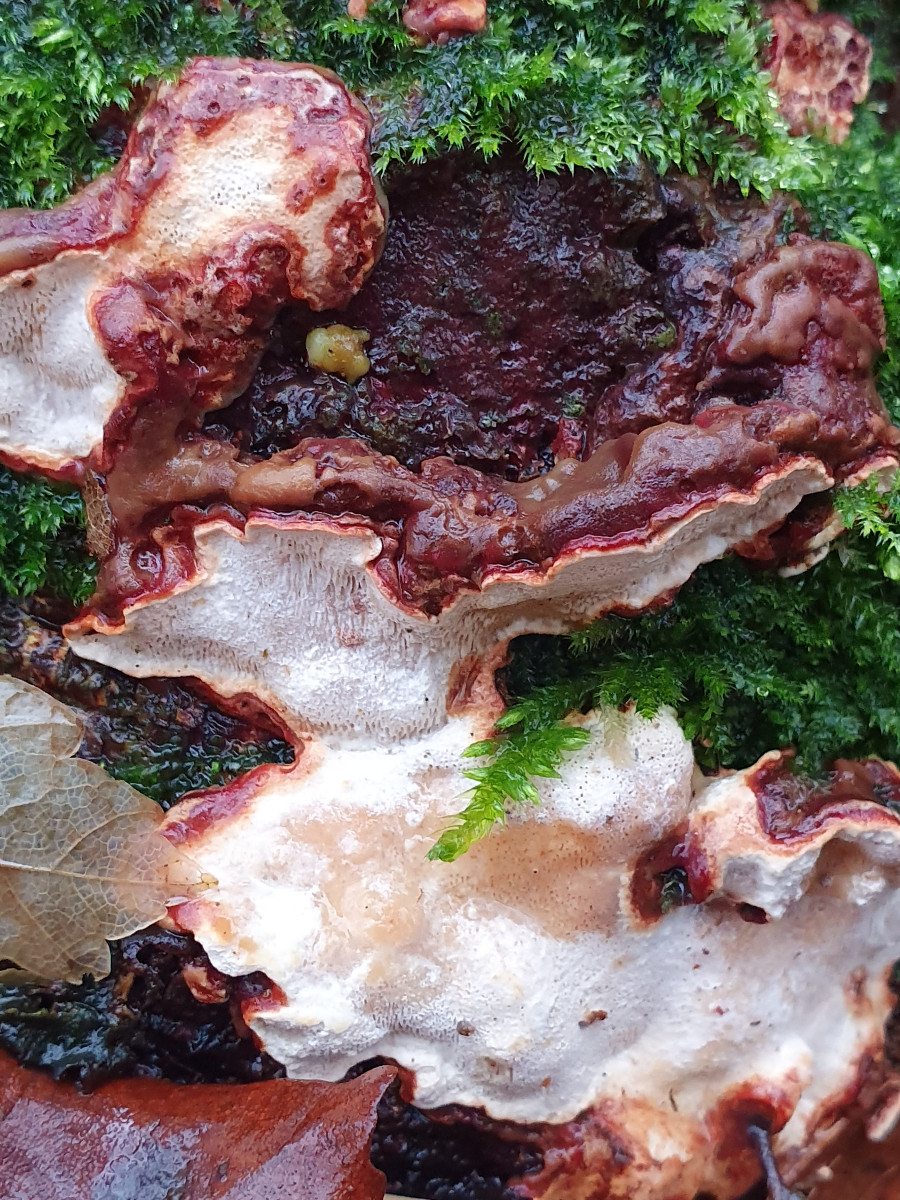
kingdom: Fungi
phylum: Basidiomycota
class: Agaricomycetes
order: Russulales
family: Bondarzewiaceae
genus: Heterobasidion
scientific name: Heterobasidion annosum
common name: almindelig rodfordærver
